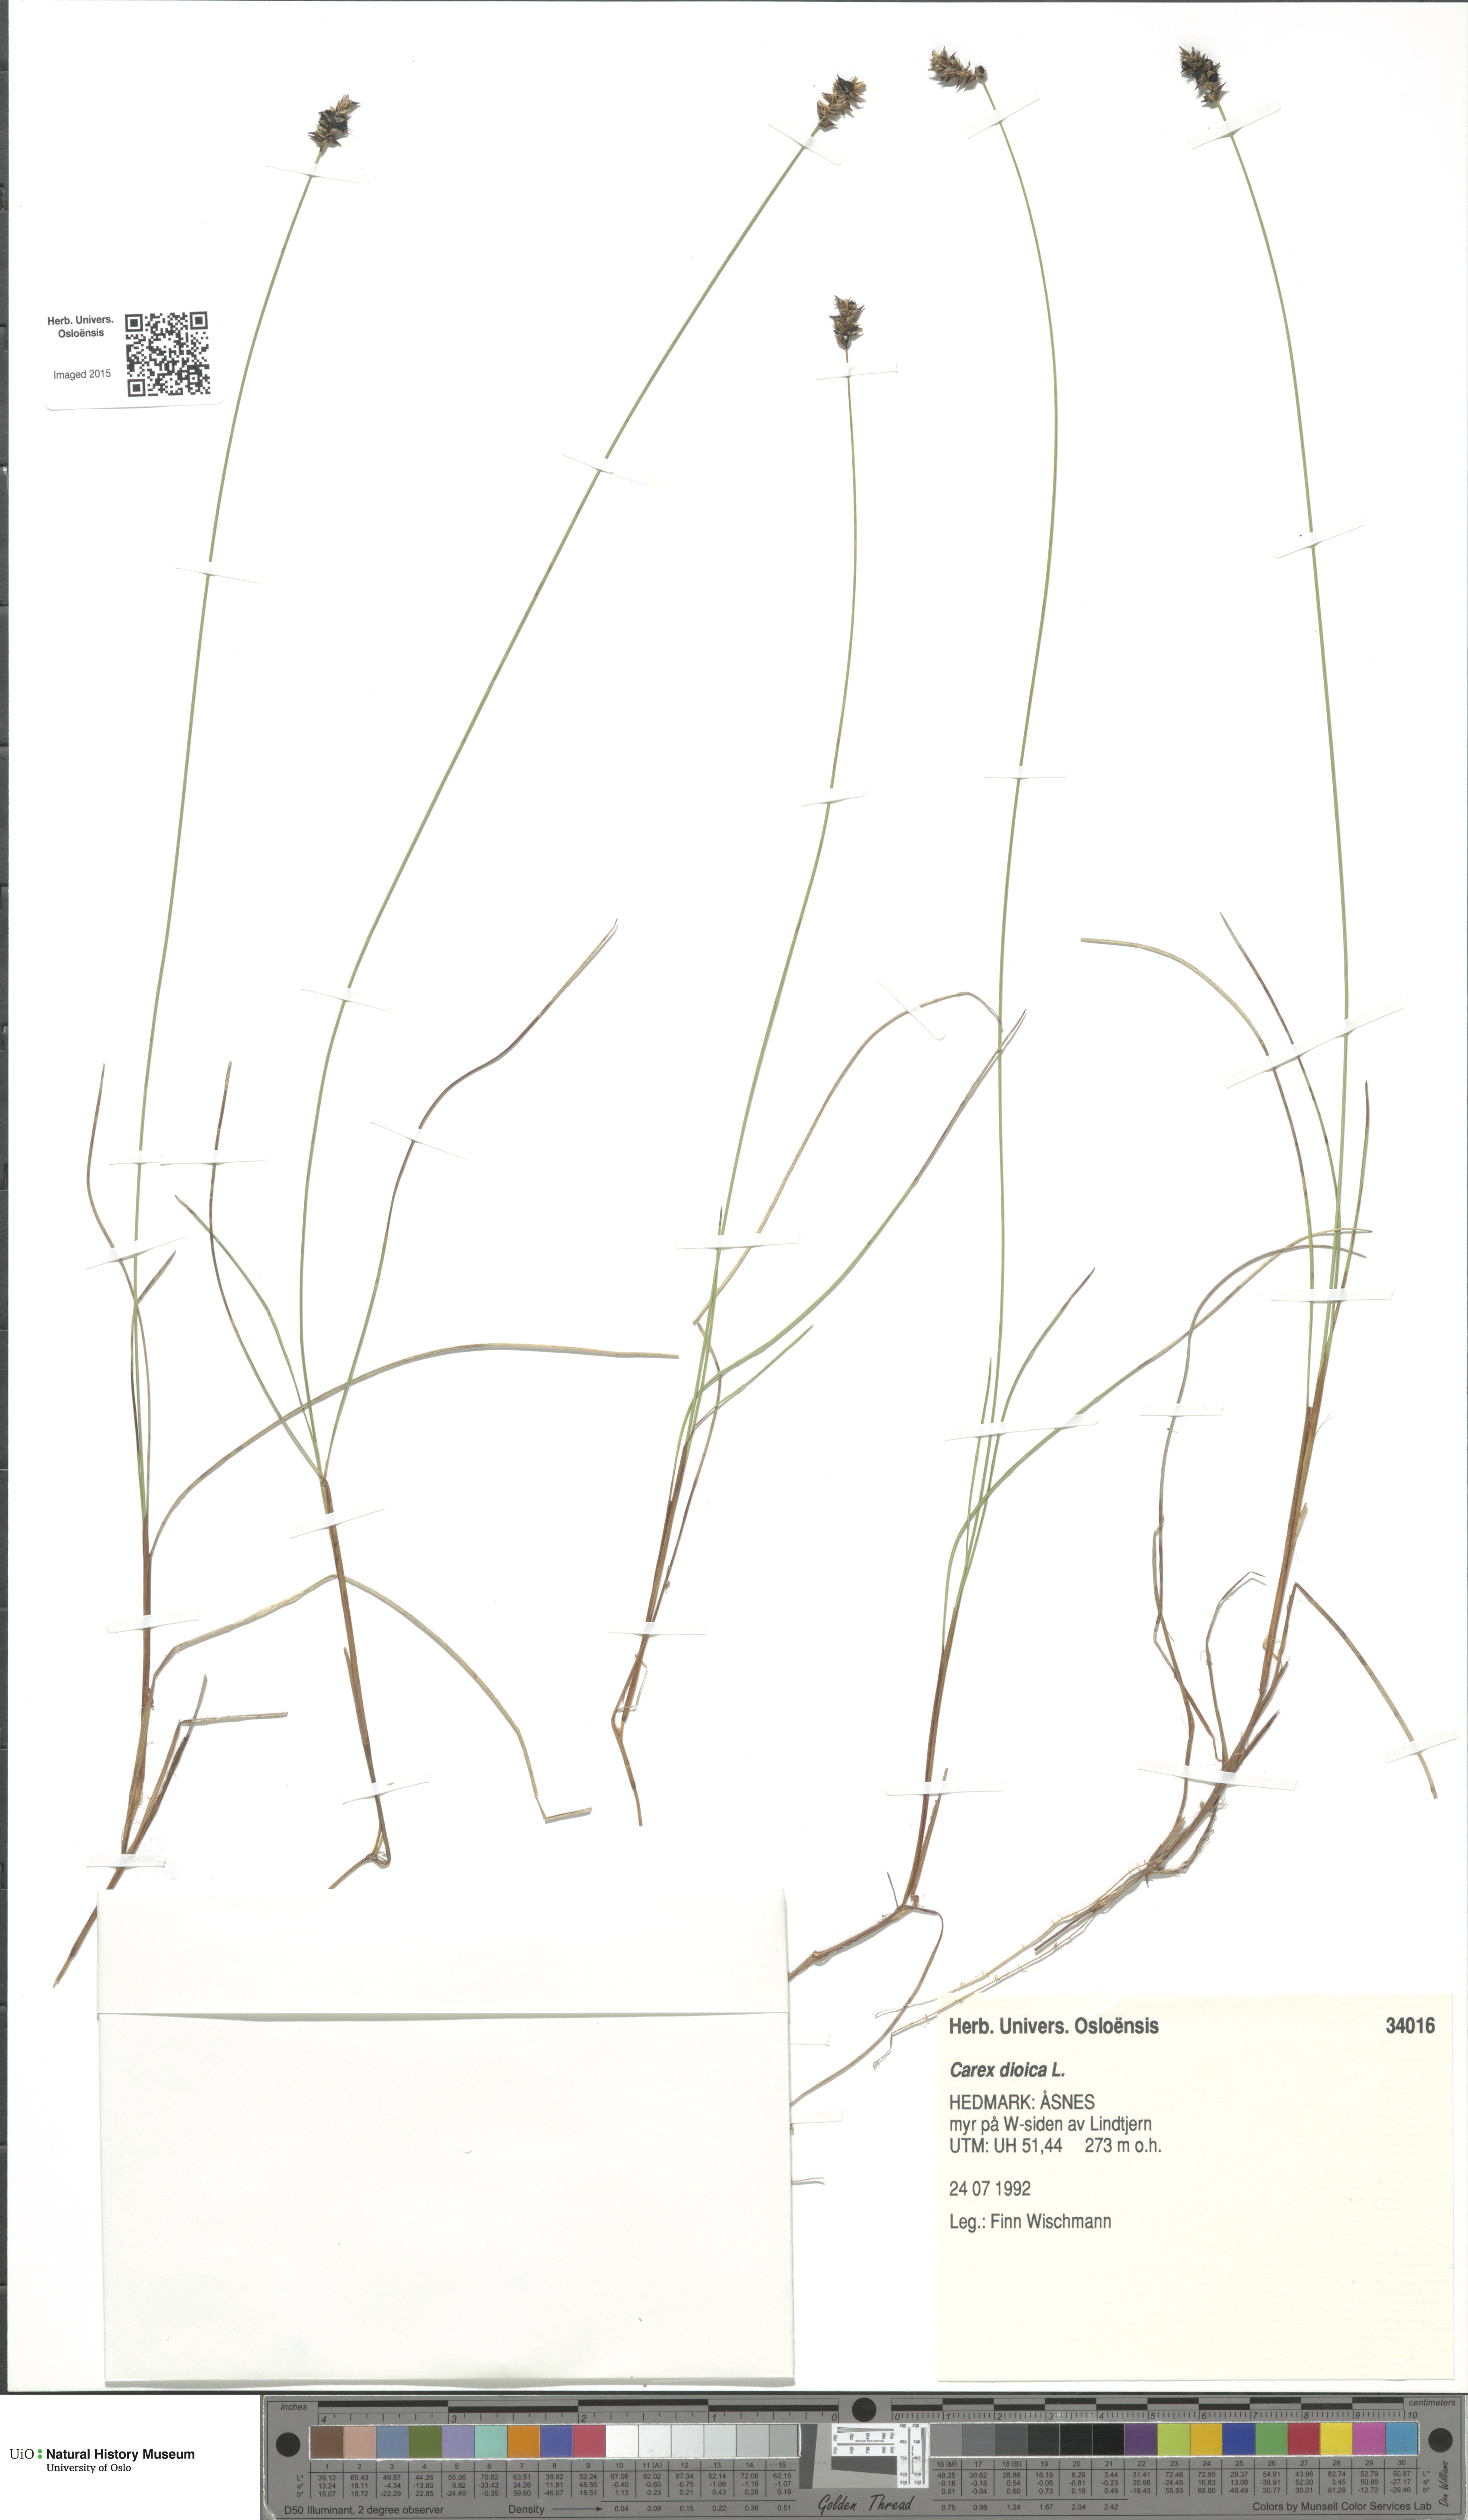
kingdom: Plantae
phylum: Tracheophyta
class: Liliopsida
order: Poales
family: Cyperaceae
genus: Carex
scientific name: Carex dioica
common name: Dioecious sedge
